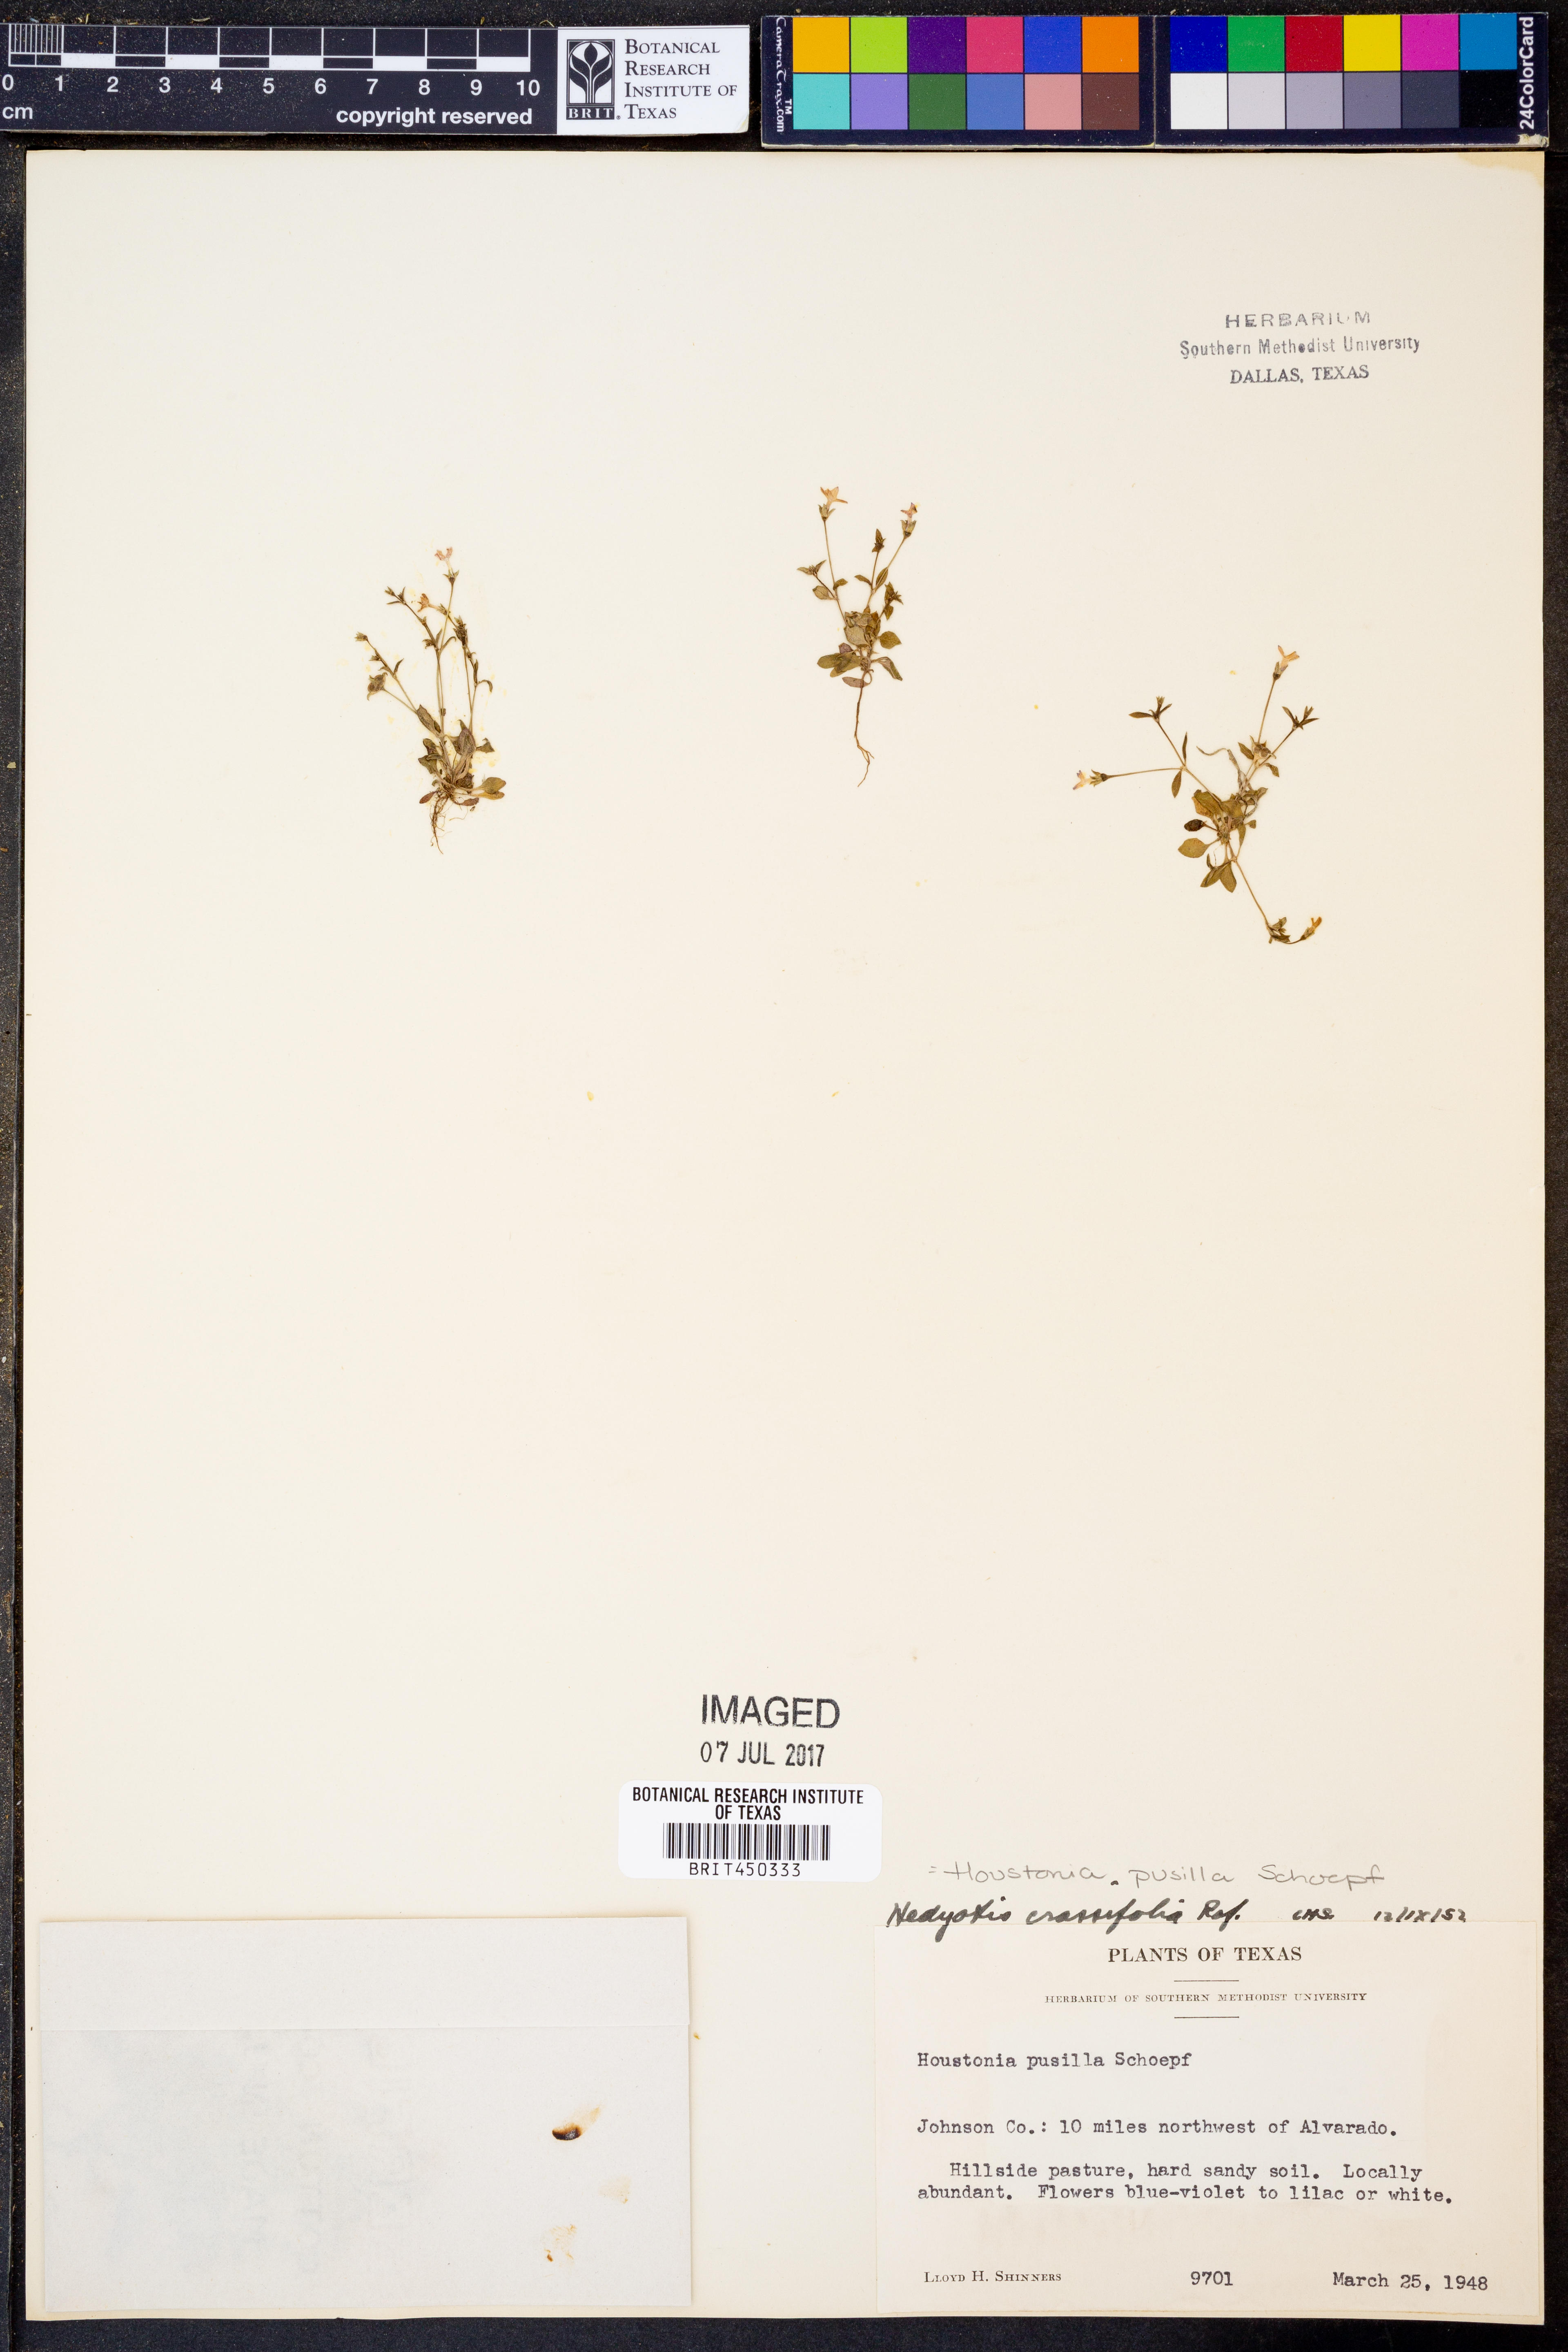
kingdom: Plantae
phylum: Tracheophyta
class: Magnoliopsida
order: Gentianales
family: Rubiaceae
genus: Houstonia
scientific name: Houstonia pusilla
